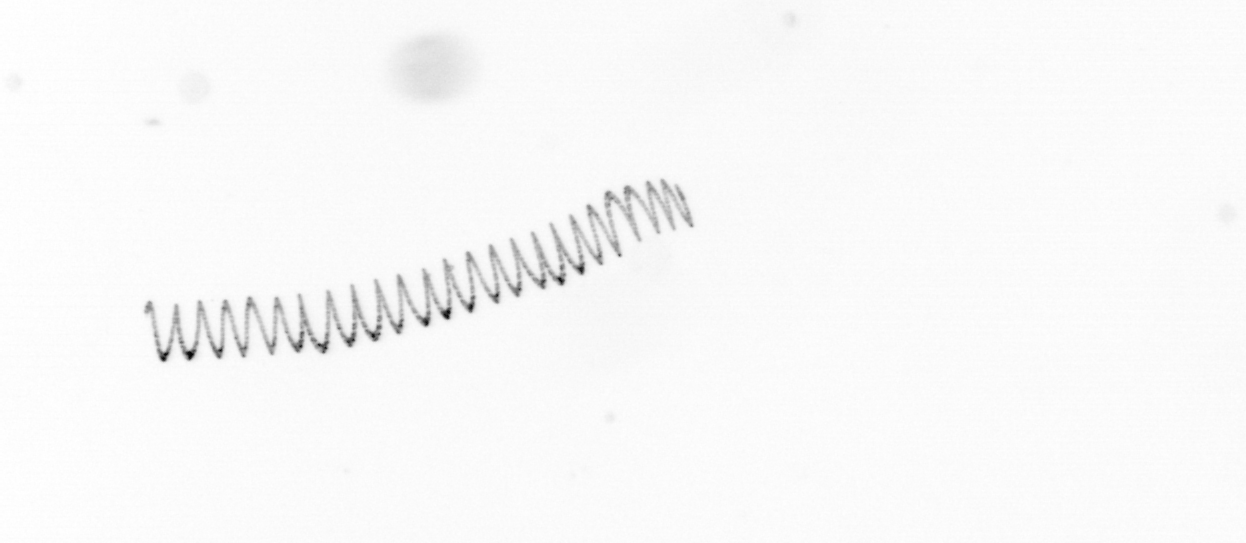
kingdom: Chromista
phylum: Ochrophyta
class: Bacillariophyceae
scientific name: Bacillariophyceae
